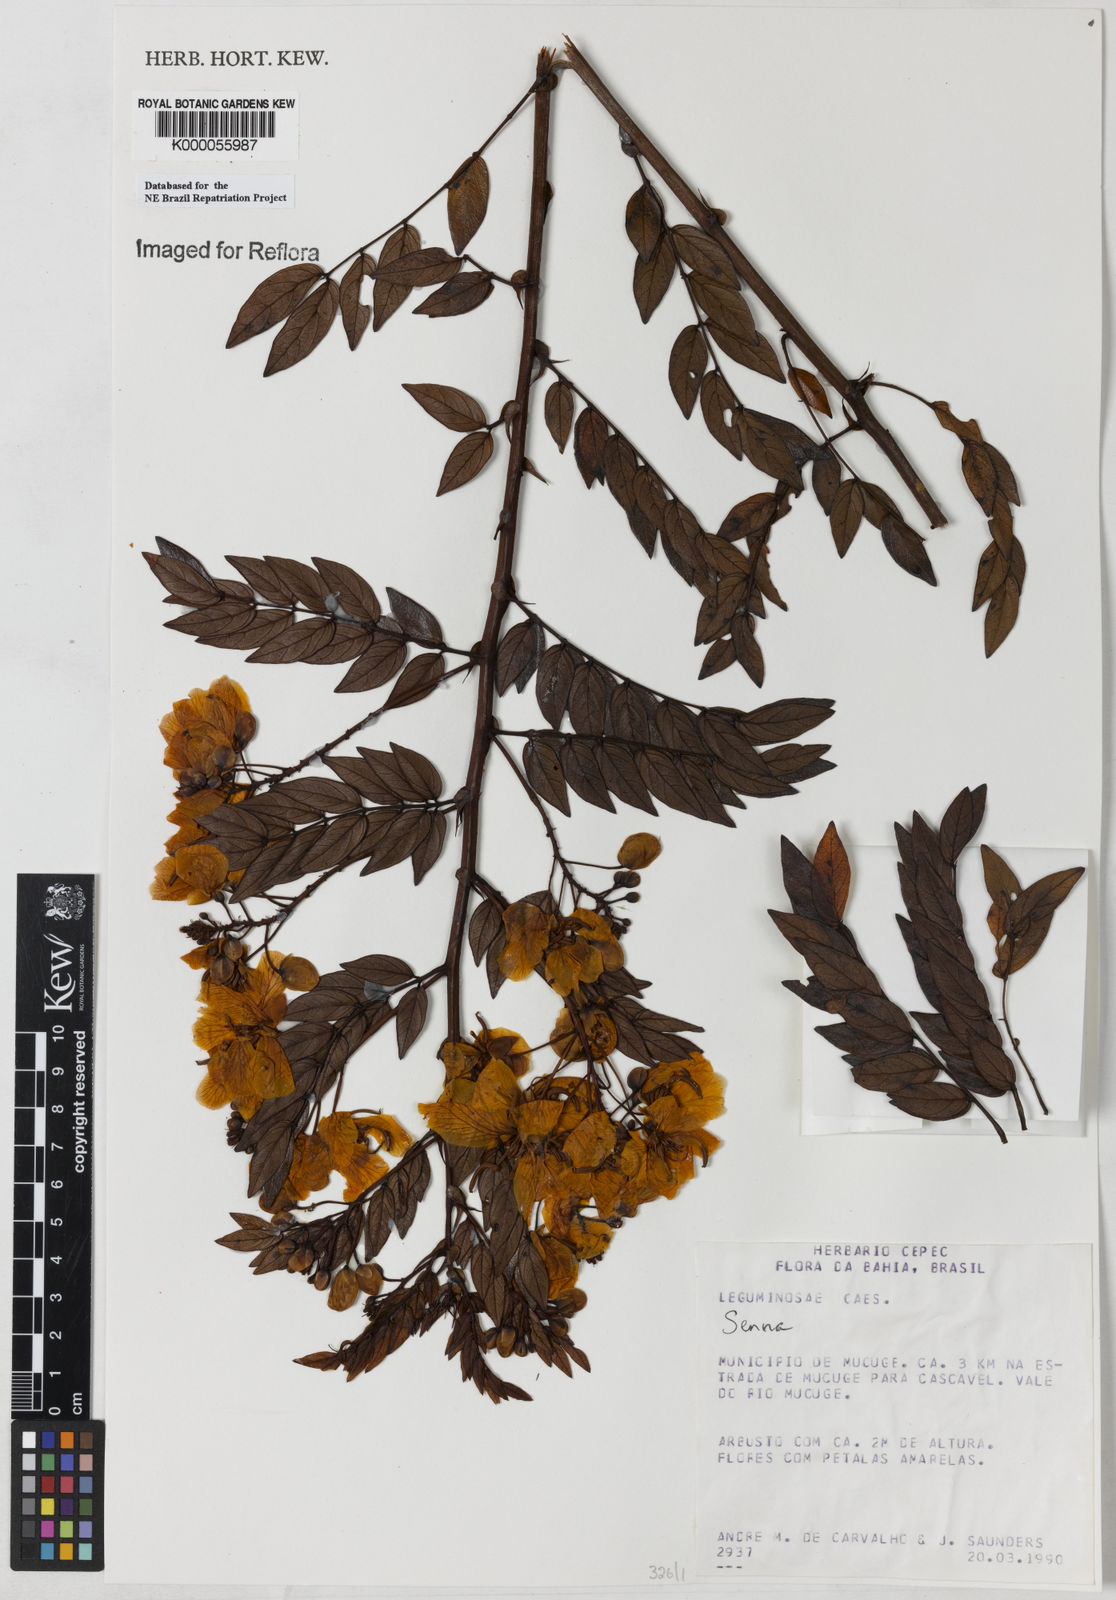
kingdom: Plantae
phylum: Tracheophyta
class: Magnoliopsida
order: Fabales
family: Fabaceae
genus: Senna
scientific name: Senna
